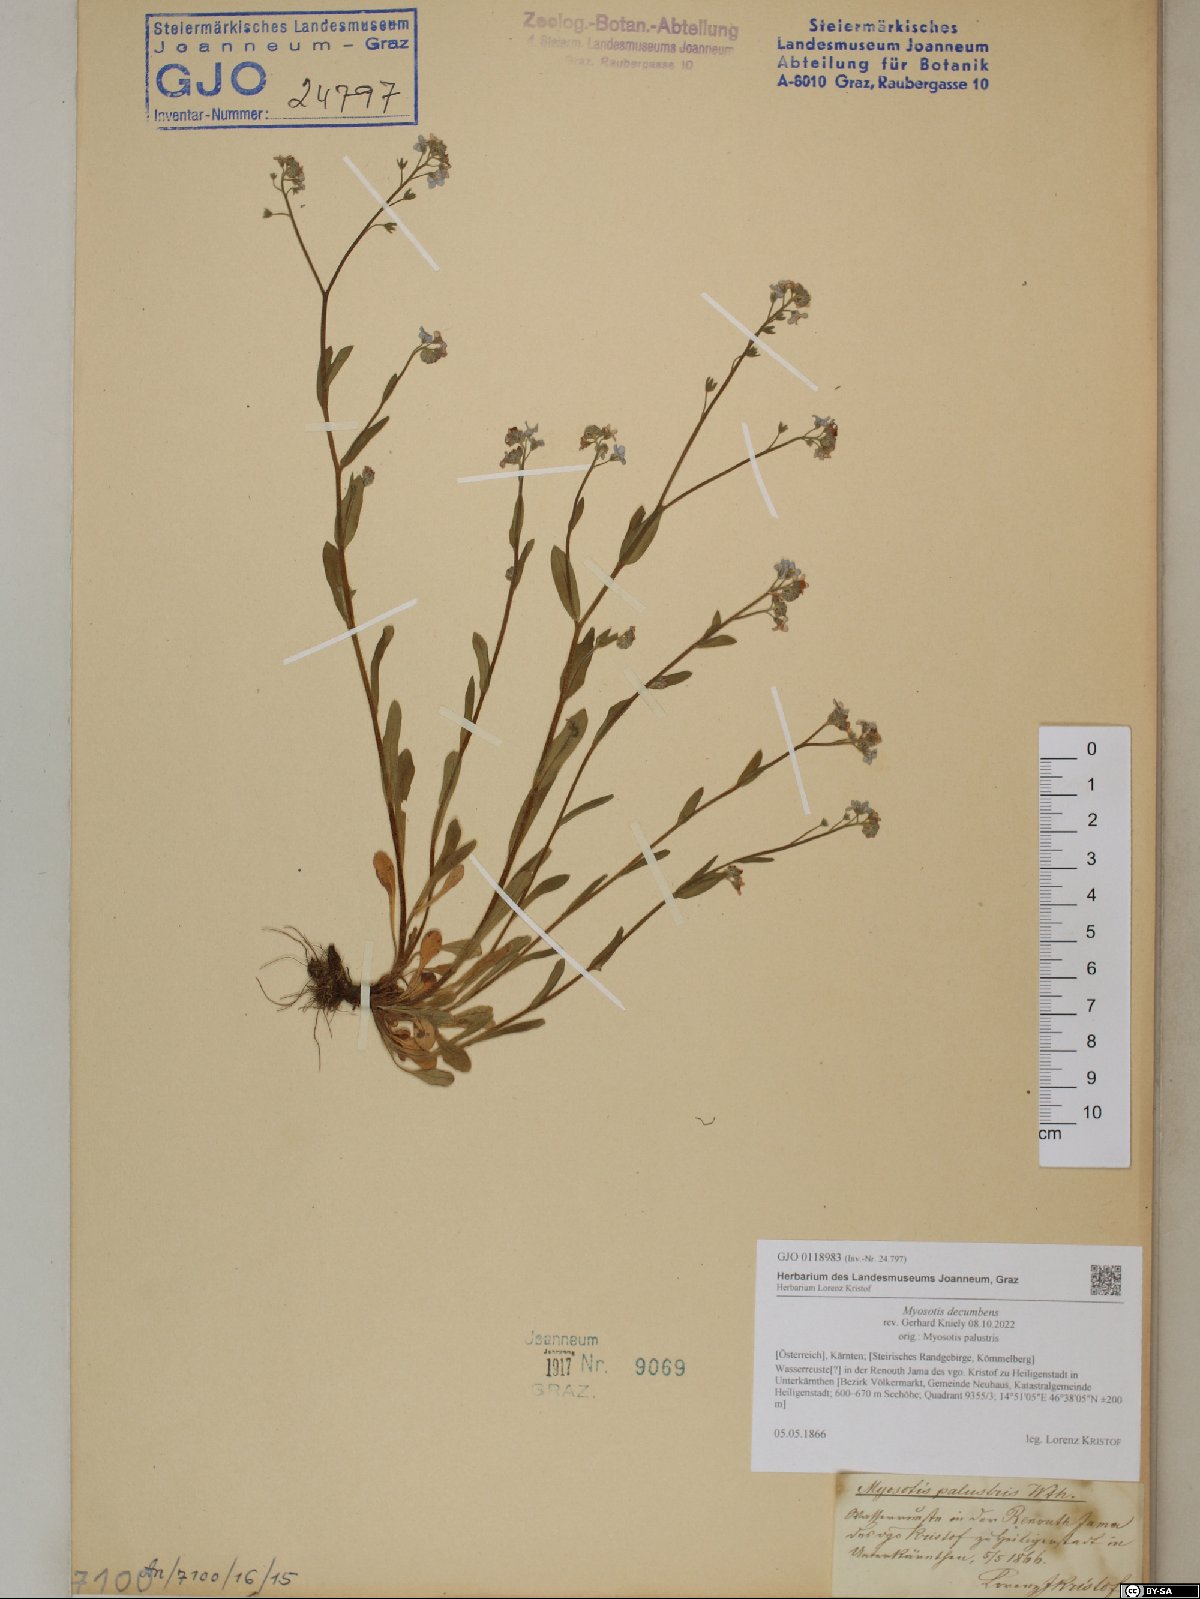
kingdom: Plantae
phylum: Tracheophyta
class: Magnoliopsida
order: Boraginales
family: Boraginaceae
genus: Myosotis
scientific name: Myosotis decumbens
